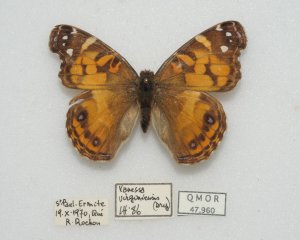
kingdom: Animalia
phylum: Arthropoda
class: Insecta
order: Lepidoptera
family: Nymphalidae
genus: Vanessa
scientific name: Vanessa virginiensis
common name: American Lady
